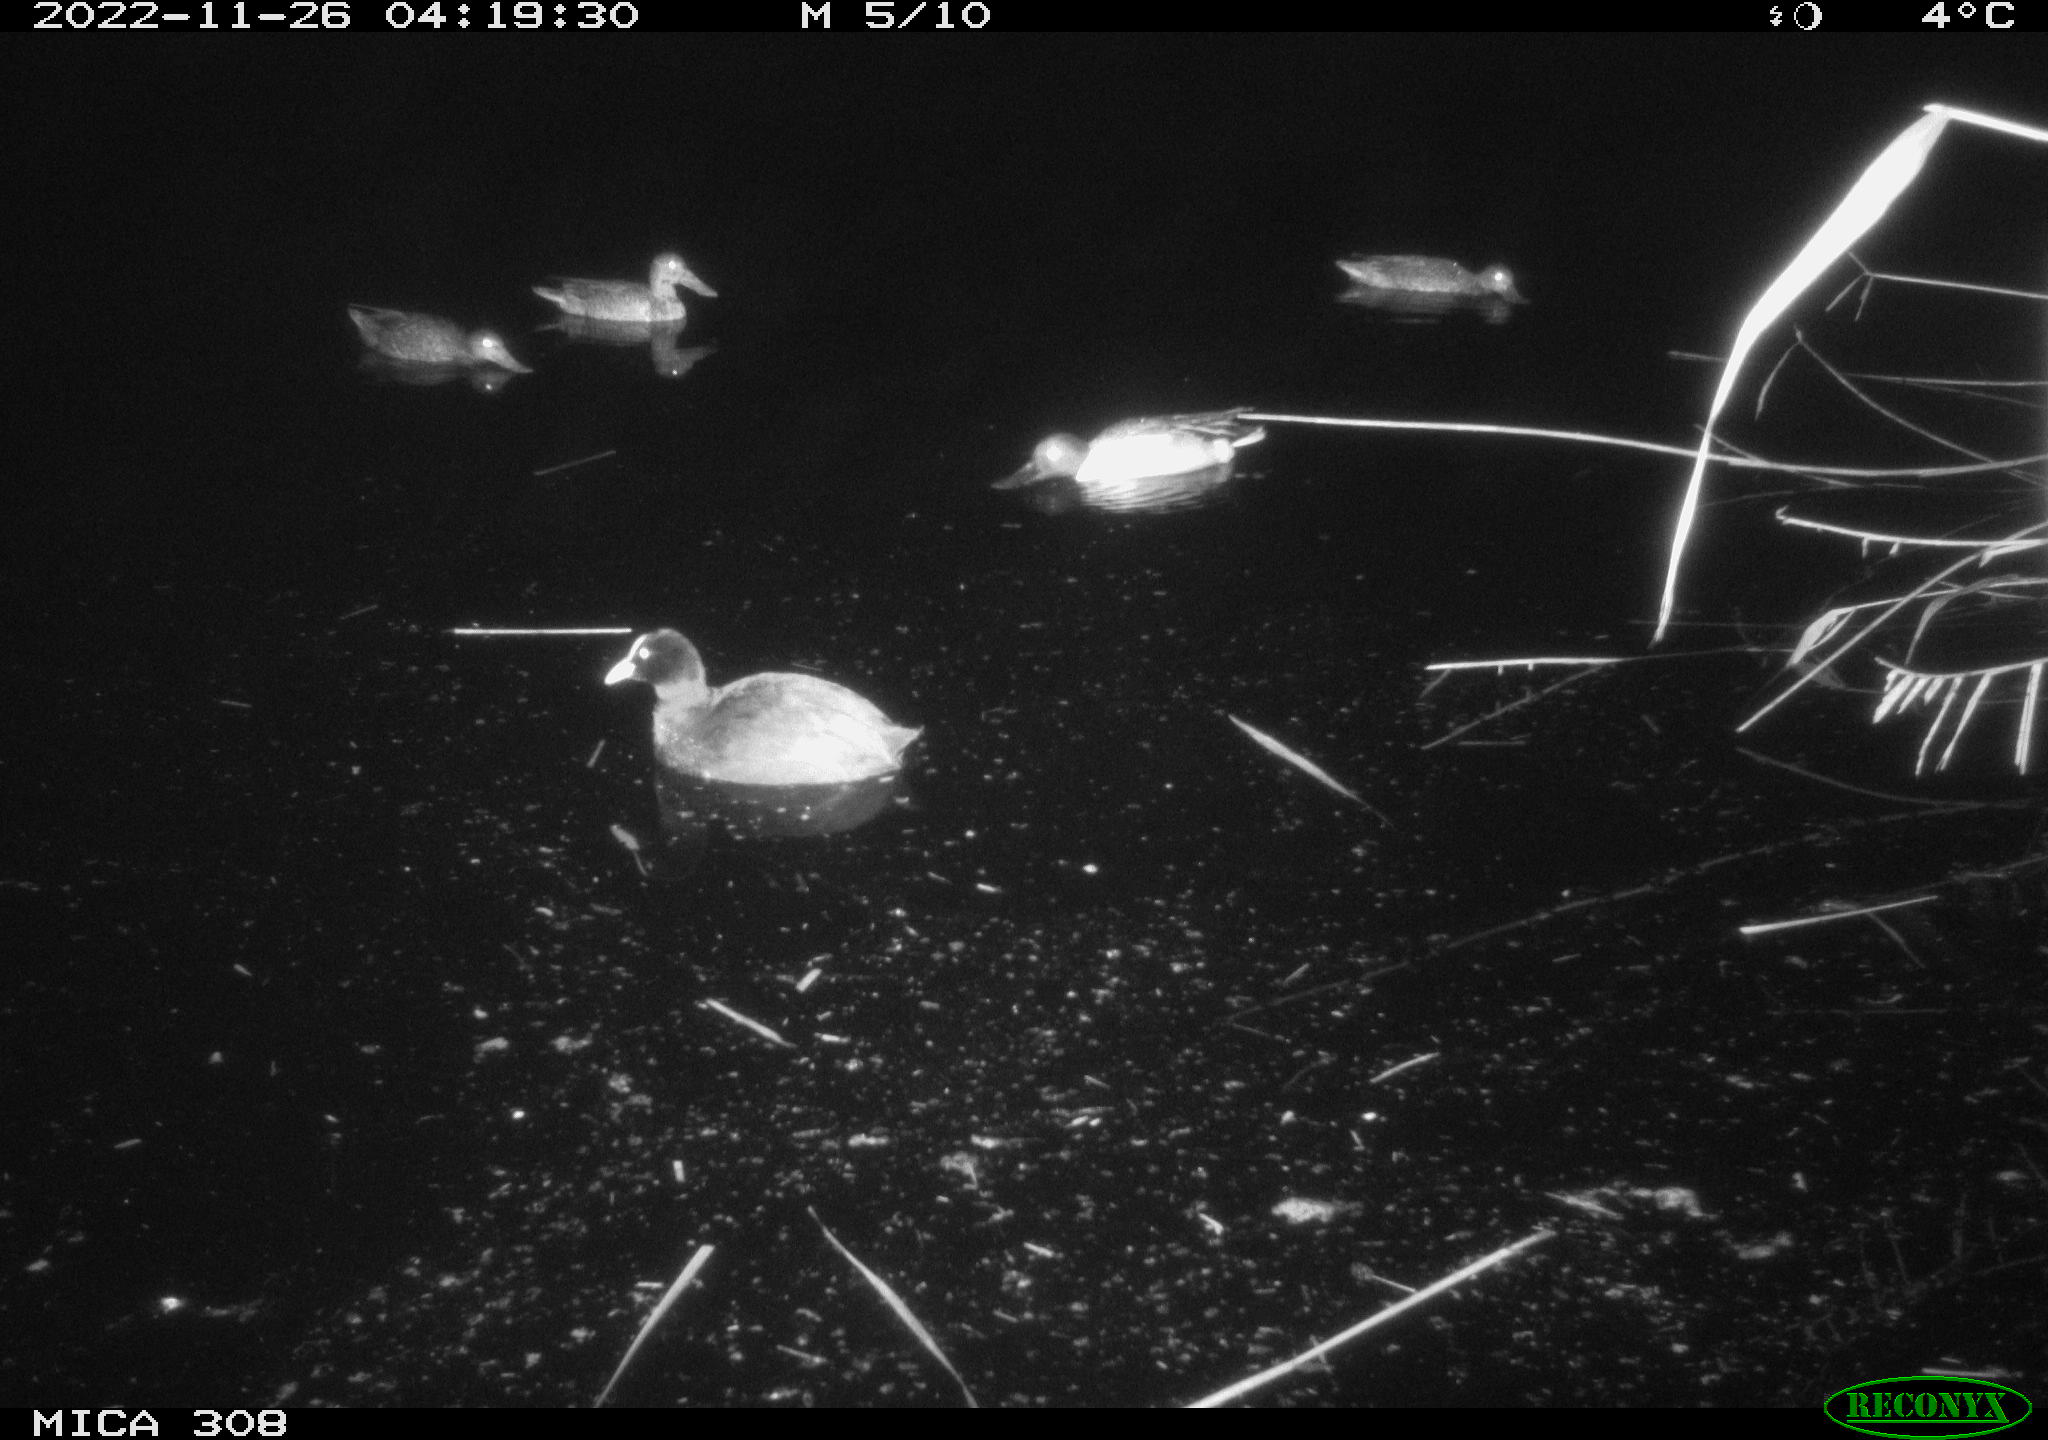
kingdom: Animalia
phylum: Chordata
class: Aves
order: Gruiformes
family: Rallidae
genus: Fulica
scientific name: Fulica atra
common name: Eurasian coot
